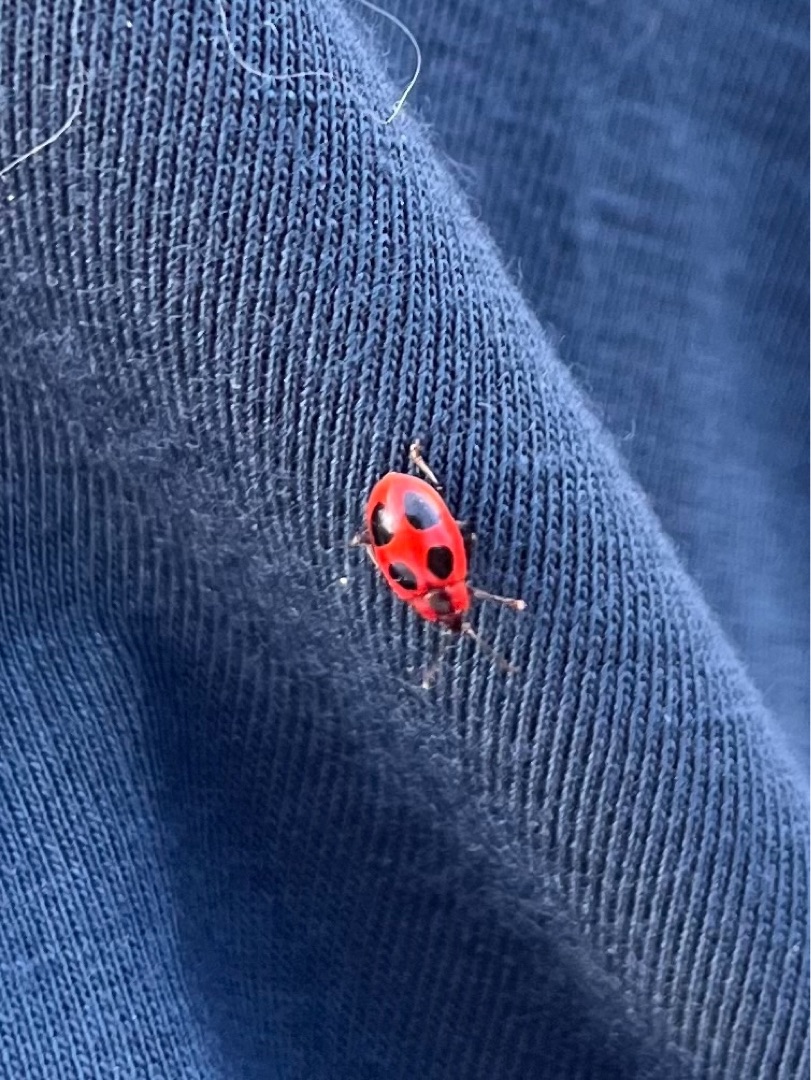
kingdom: Animalia
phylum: Arthropoda
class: Insecta
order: Coleoptera
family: Endomychidae
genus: Endomychus
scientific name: Endomychus coccineus
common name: Skarlagensvampehøne
